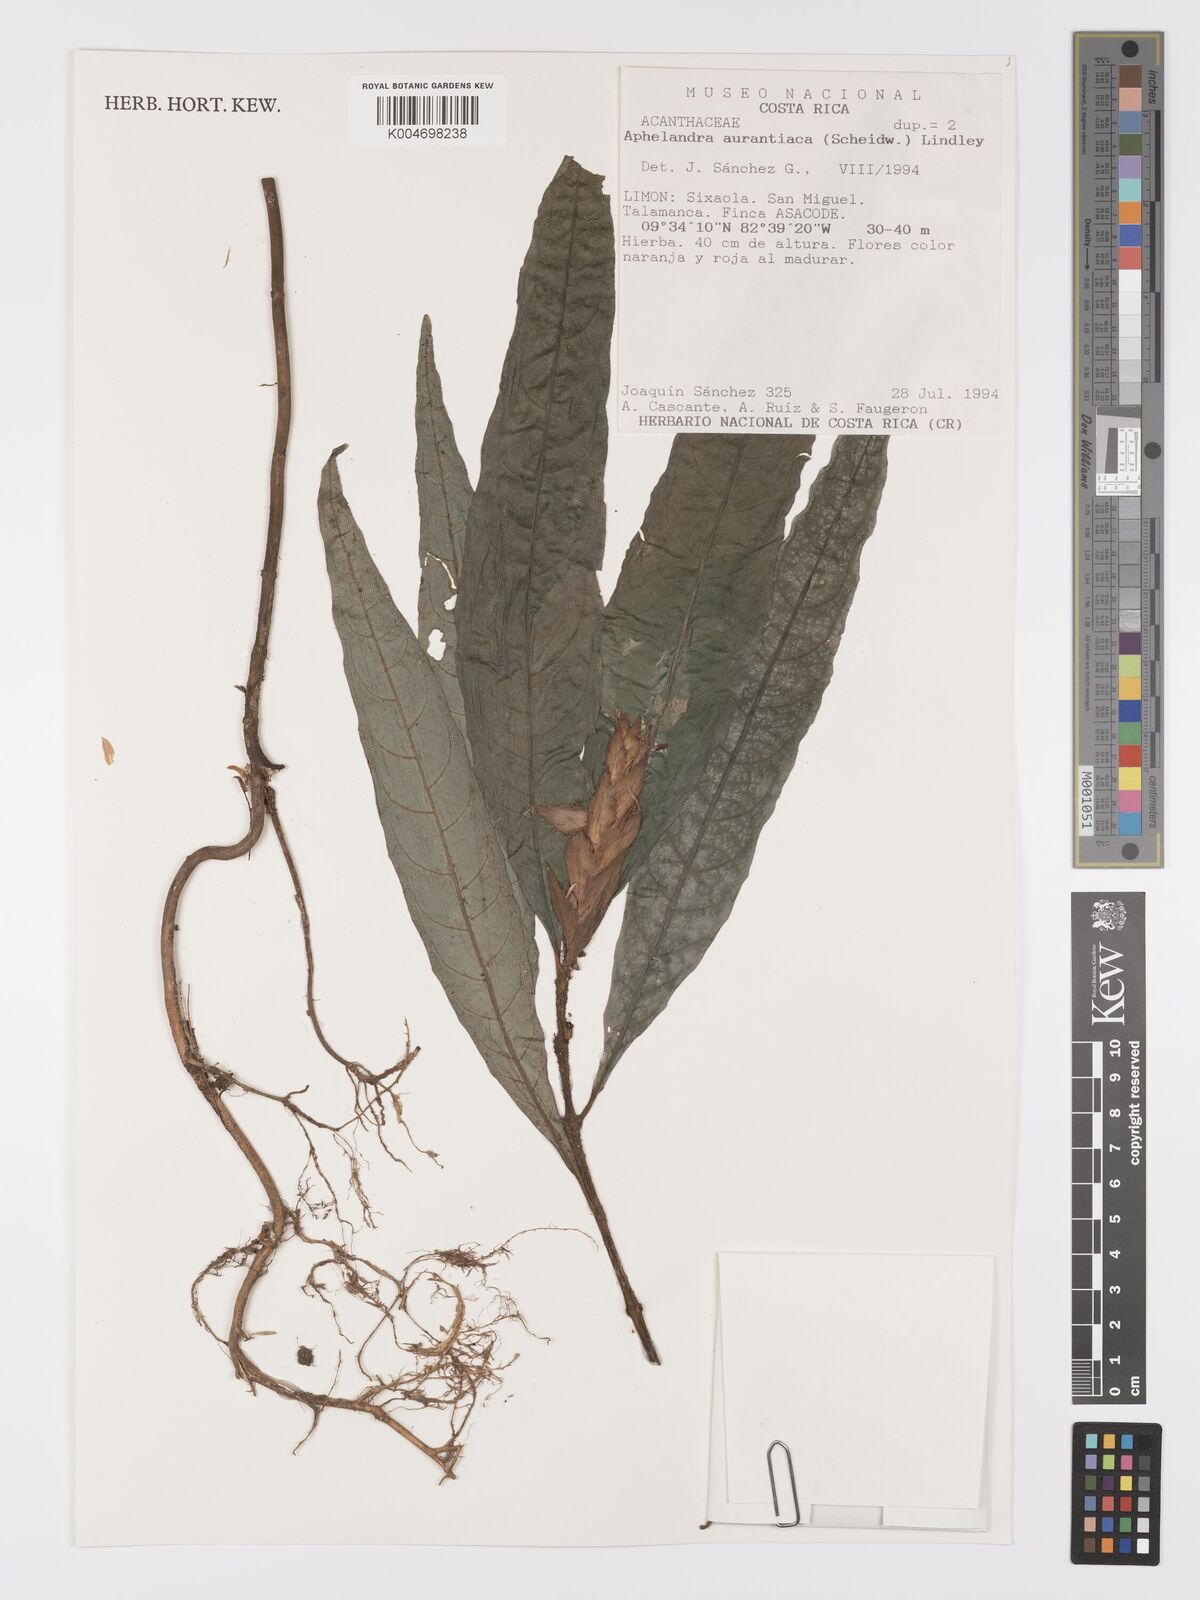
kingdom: Plantae
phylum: Tracheophyta
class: Magnoliopsida
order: Lamiales
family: Acanthaceae
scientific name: Acanthaceae
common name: Acanthaceae
